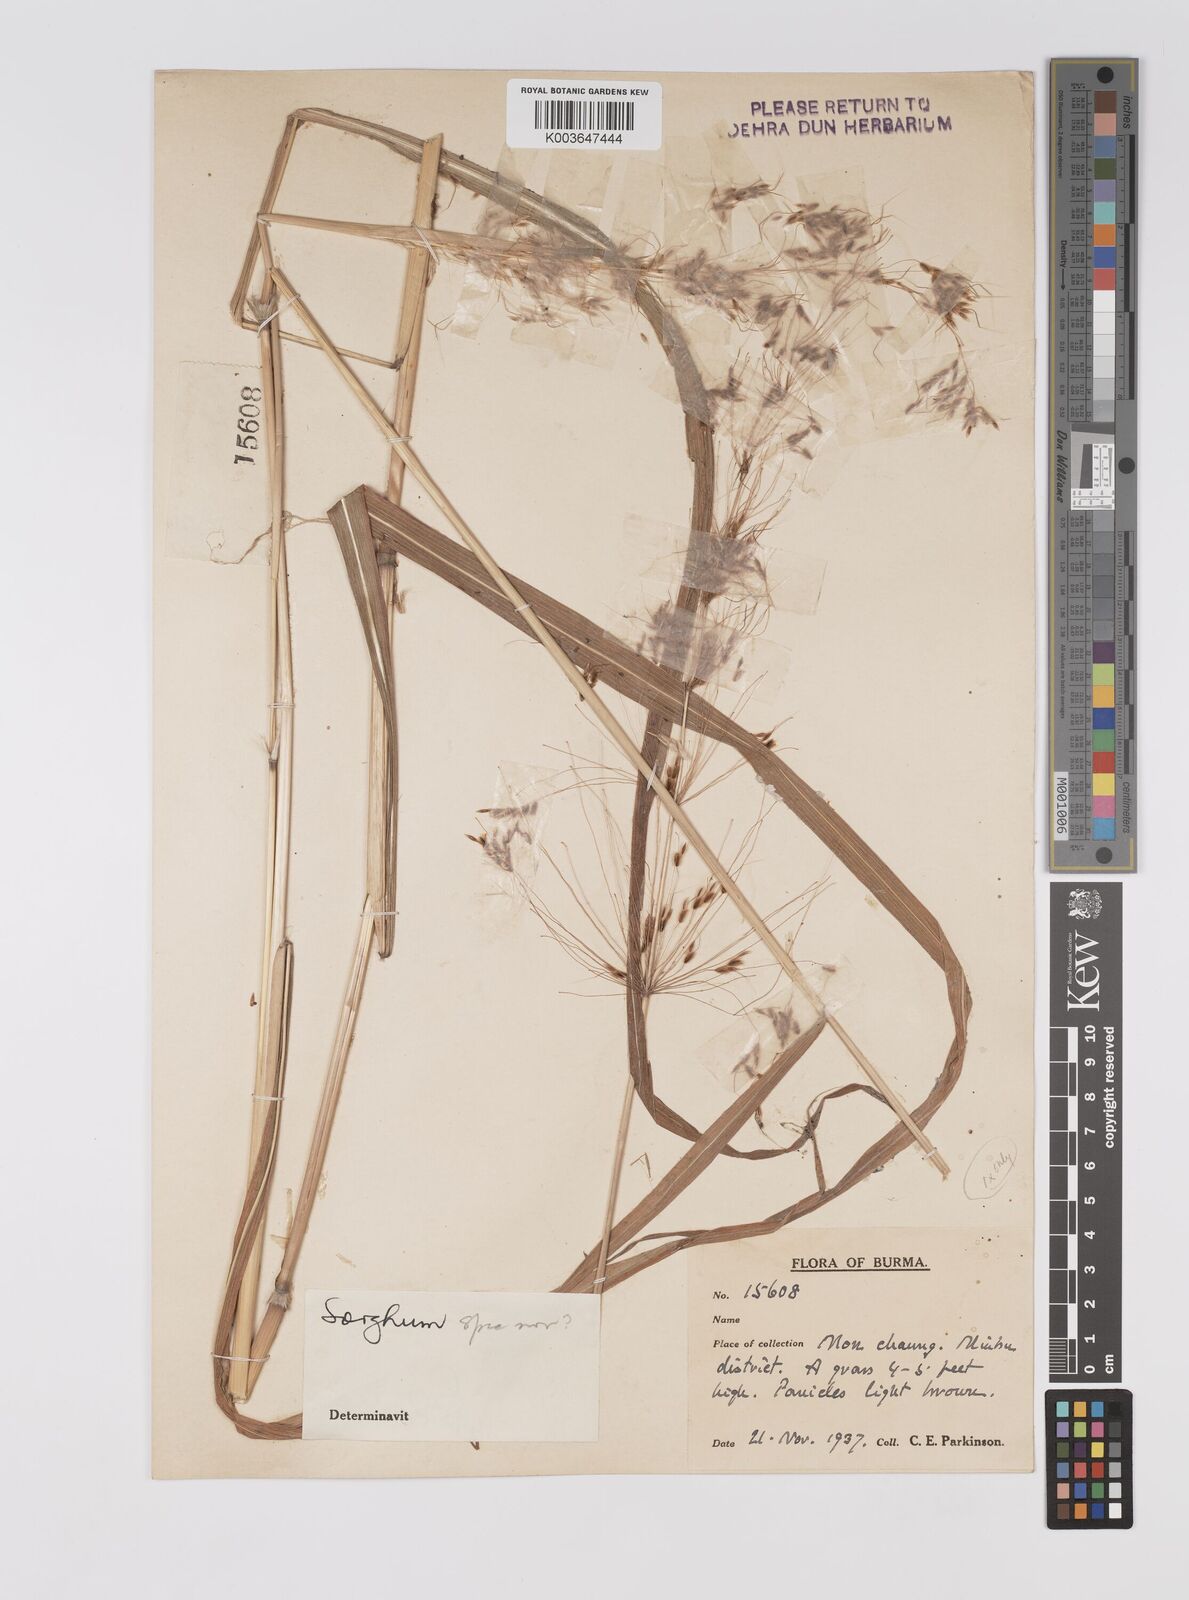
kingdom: Plantae
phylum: Tracheophyta
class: Liliopsida
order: Poales
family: Poaceae
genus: Sorghum
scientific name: Sorghum
